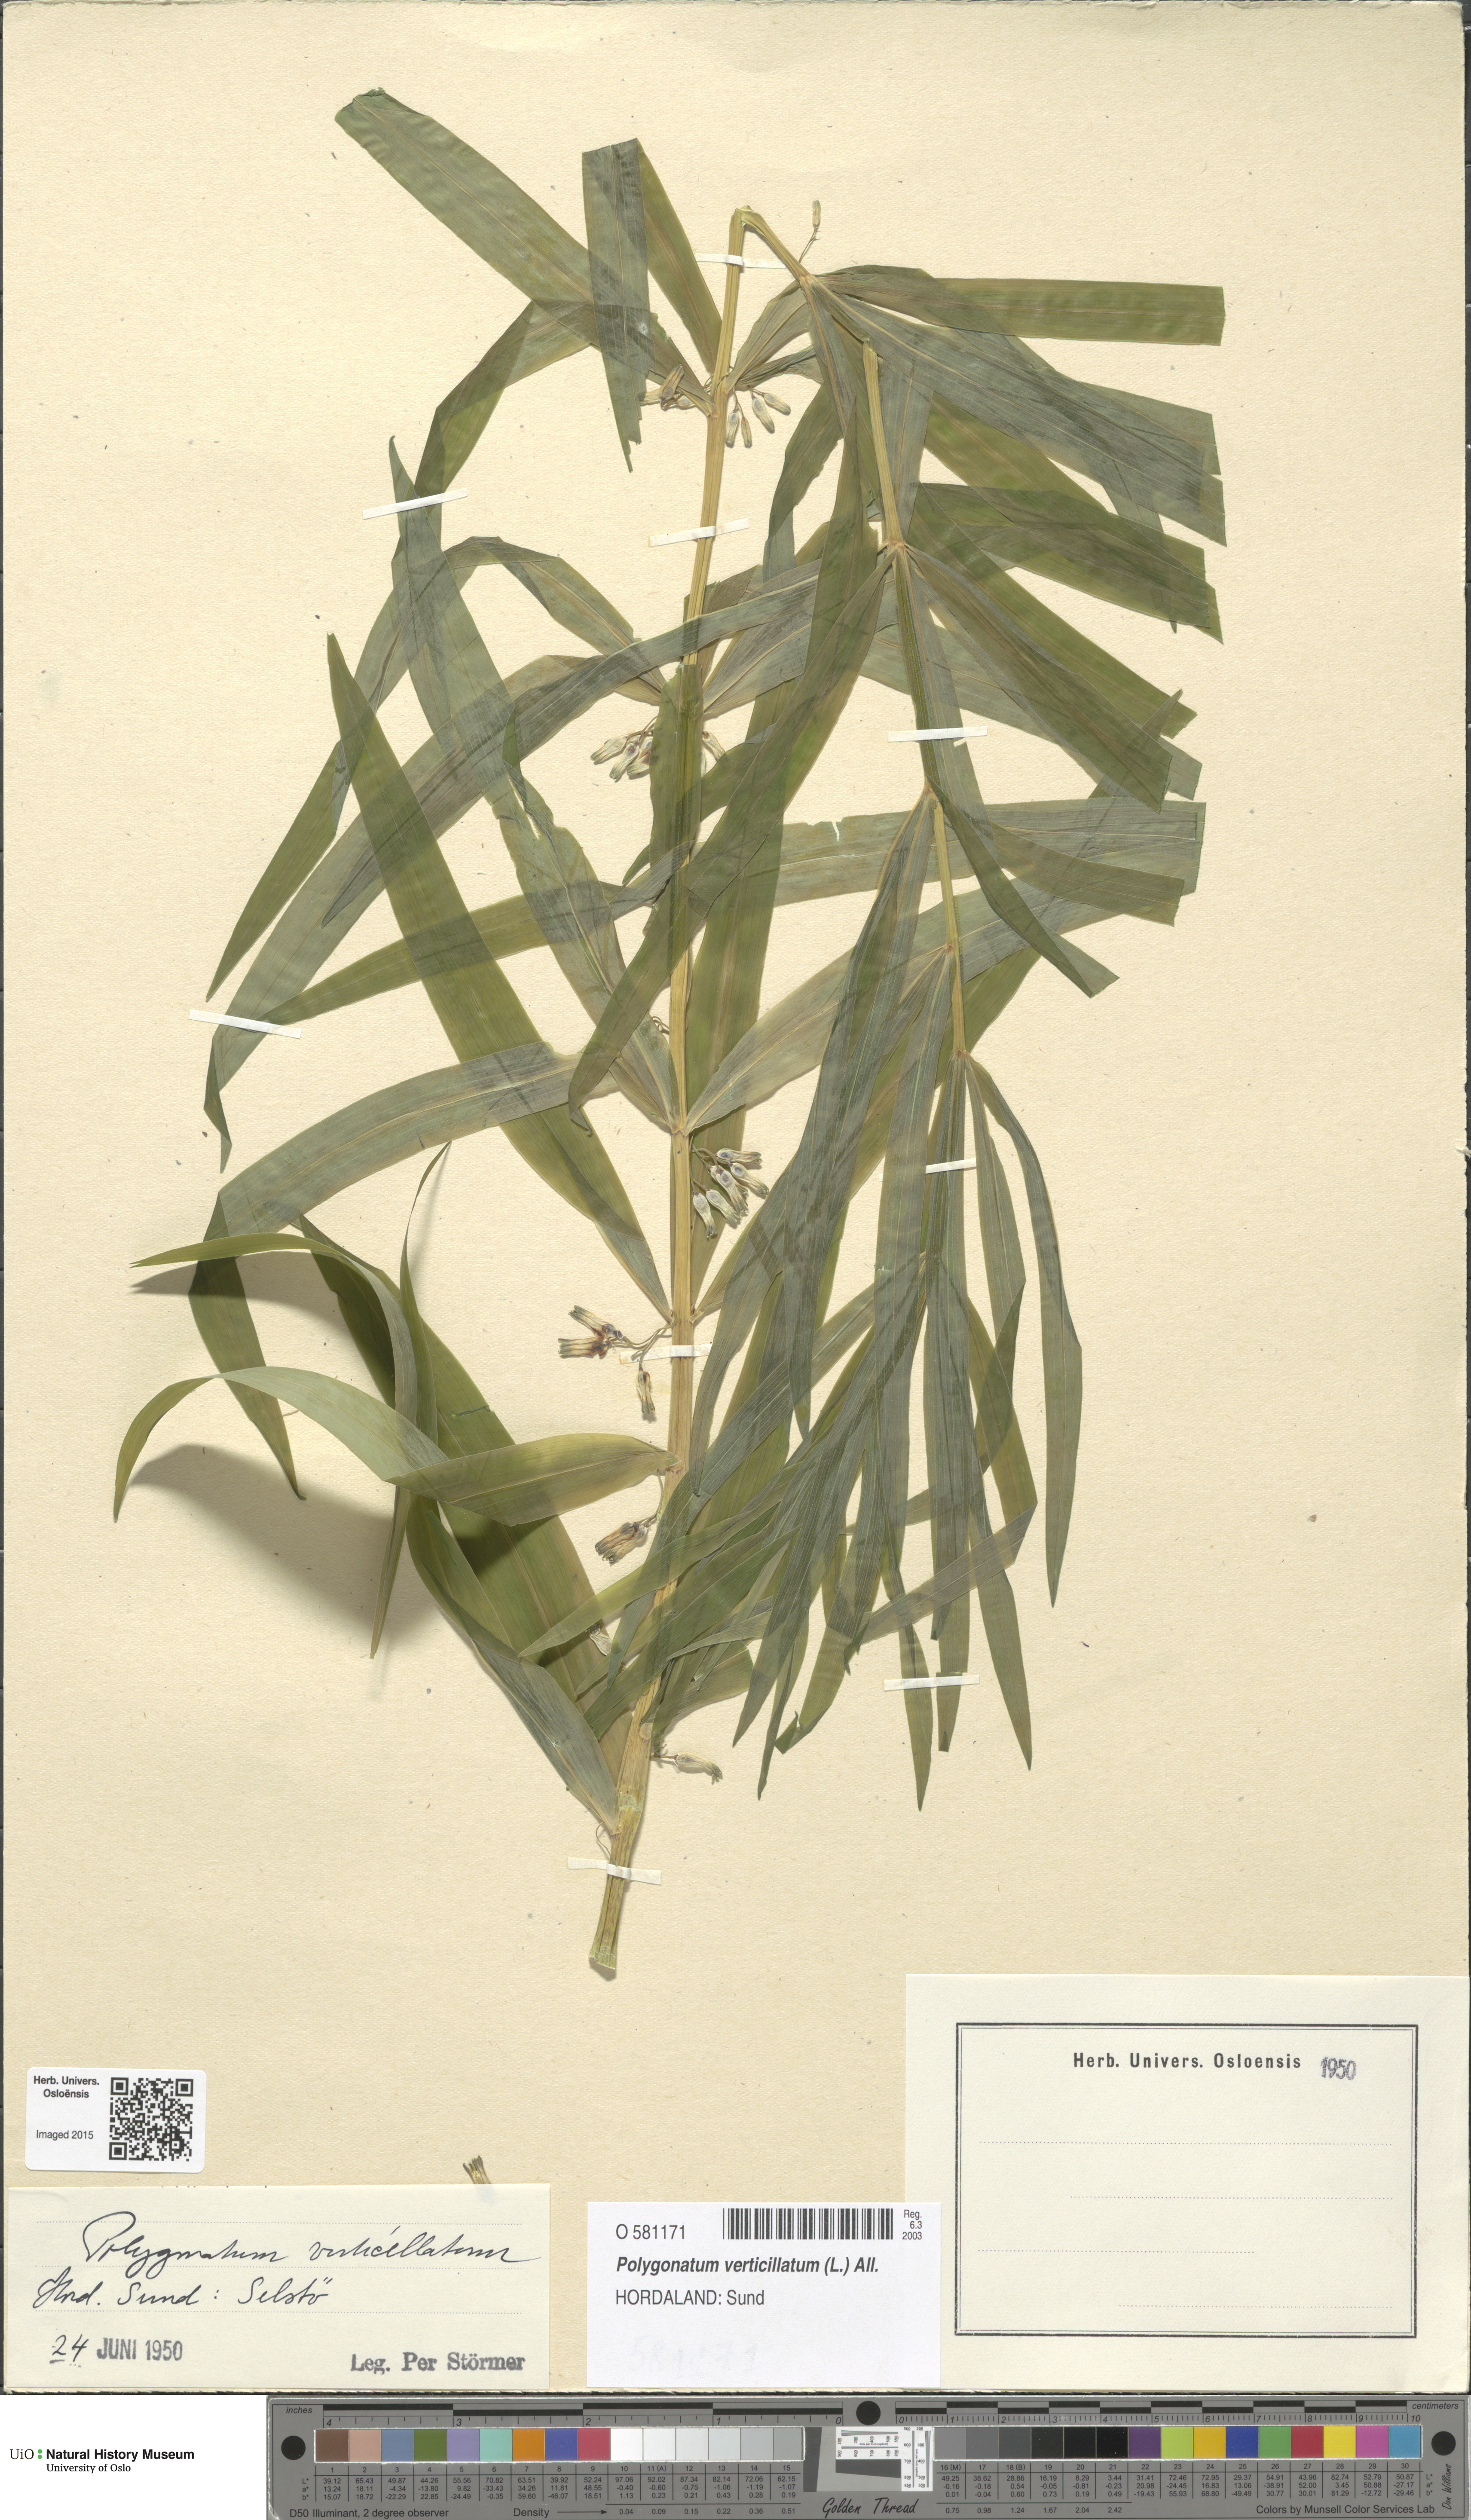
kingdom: Plantae
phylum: Tracheophyta
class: Liliopsida
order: Asparagales
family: Asparagaceae
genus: Polygonatum
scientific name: Polygonatum verticillatum
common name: Whorled solomon's-seal
